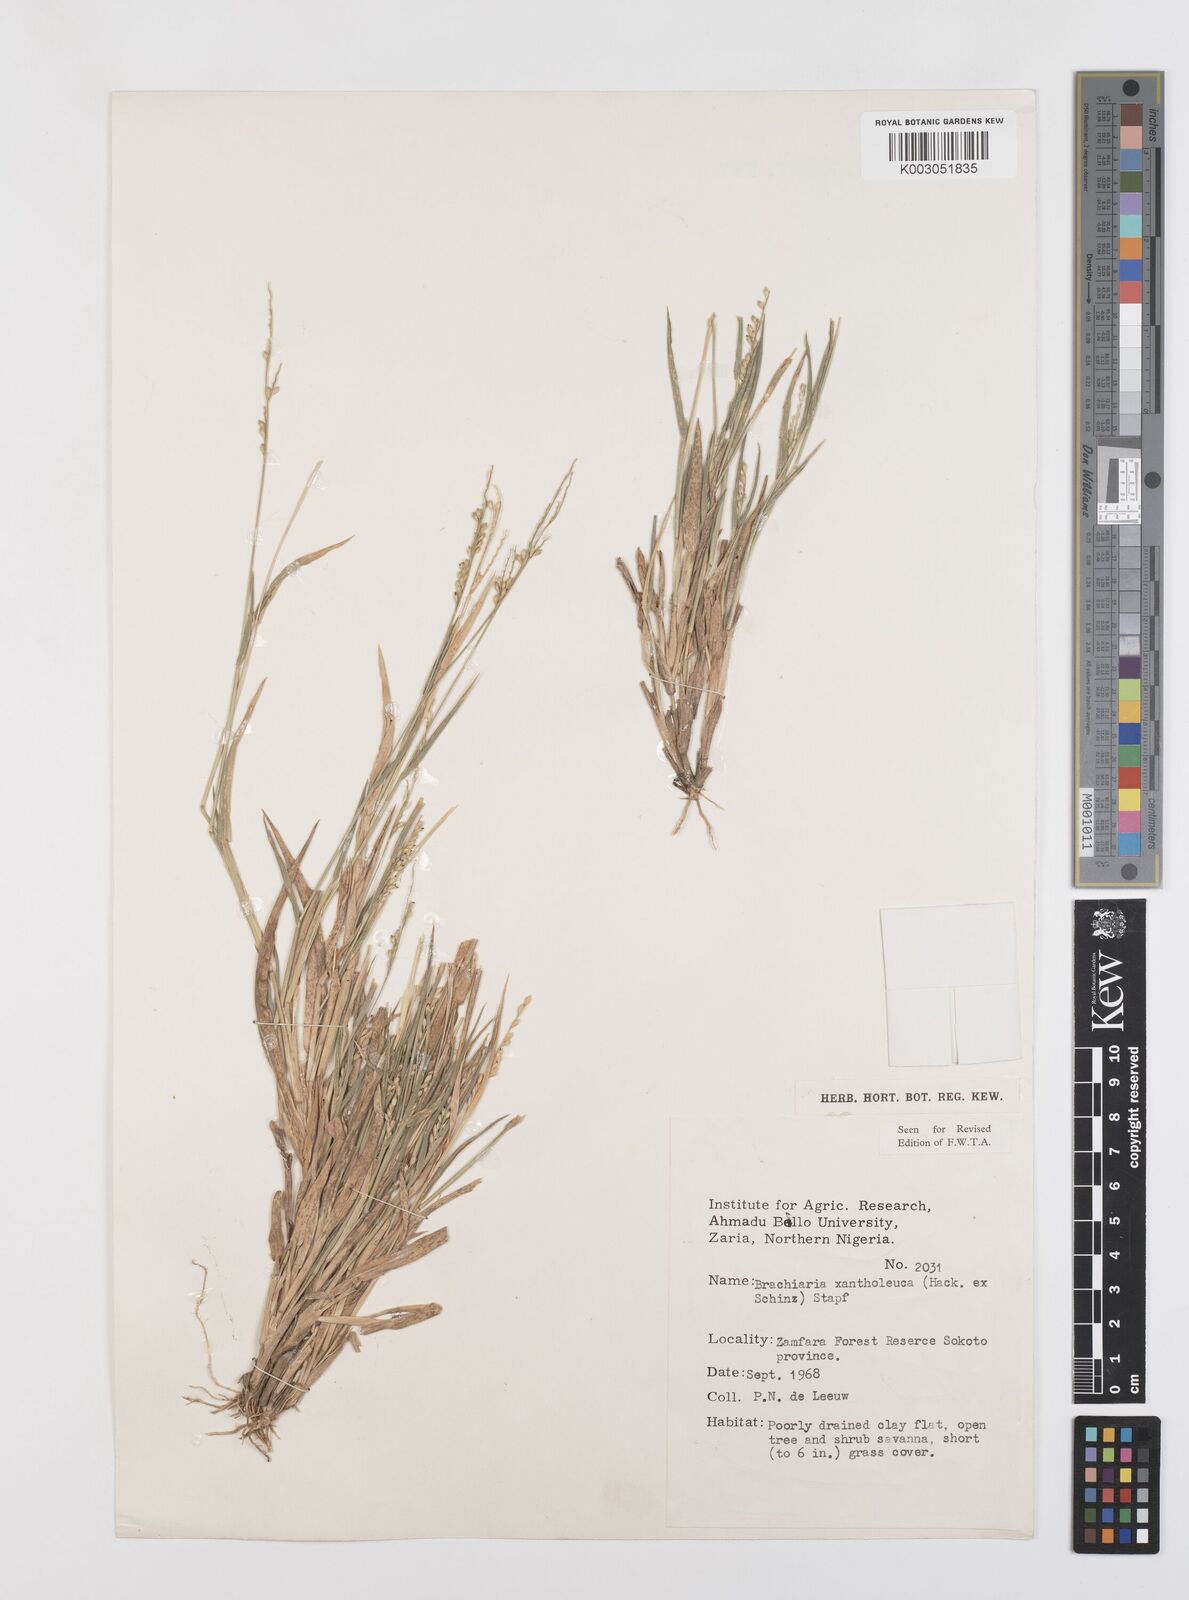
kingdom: Plantae
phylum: Tracheophyta
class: Liliopsida
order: Poales
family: Poaceae
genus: Urochloa
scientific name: Urochloa xantholeuca
